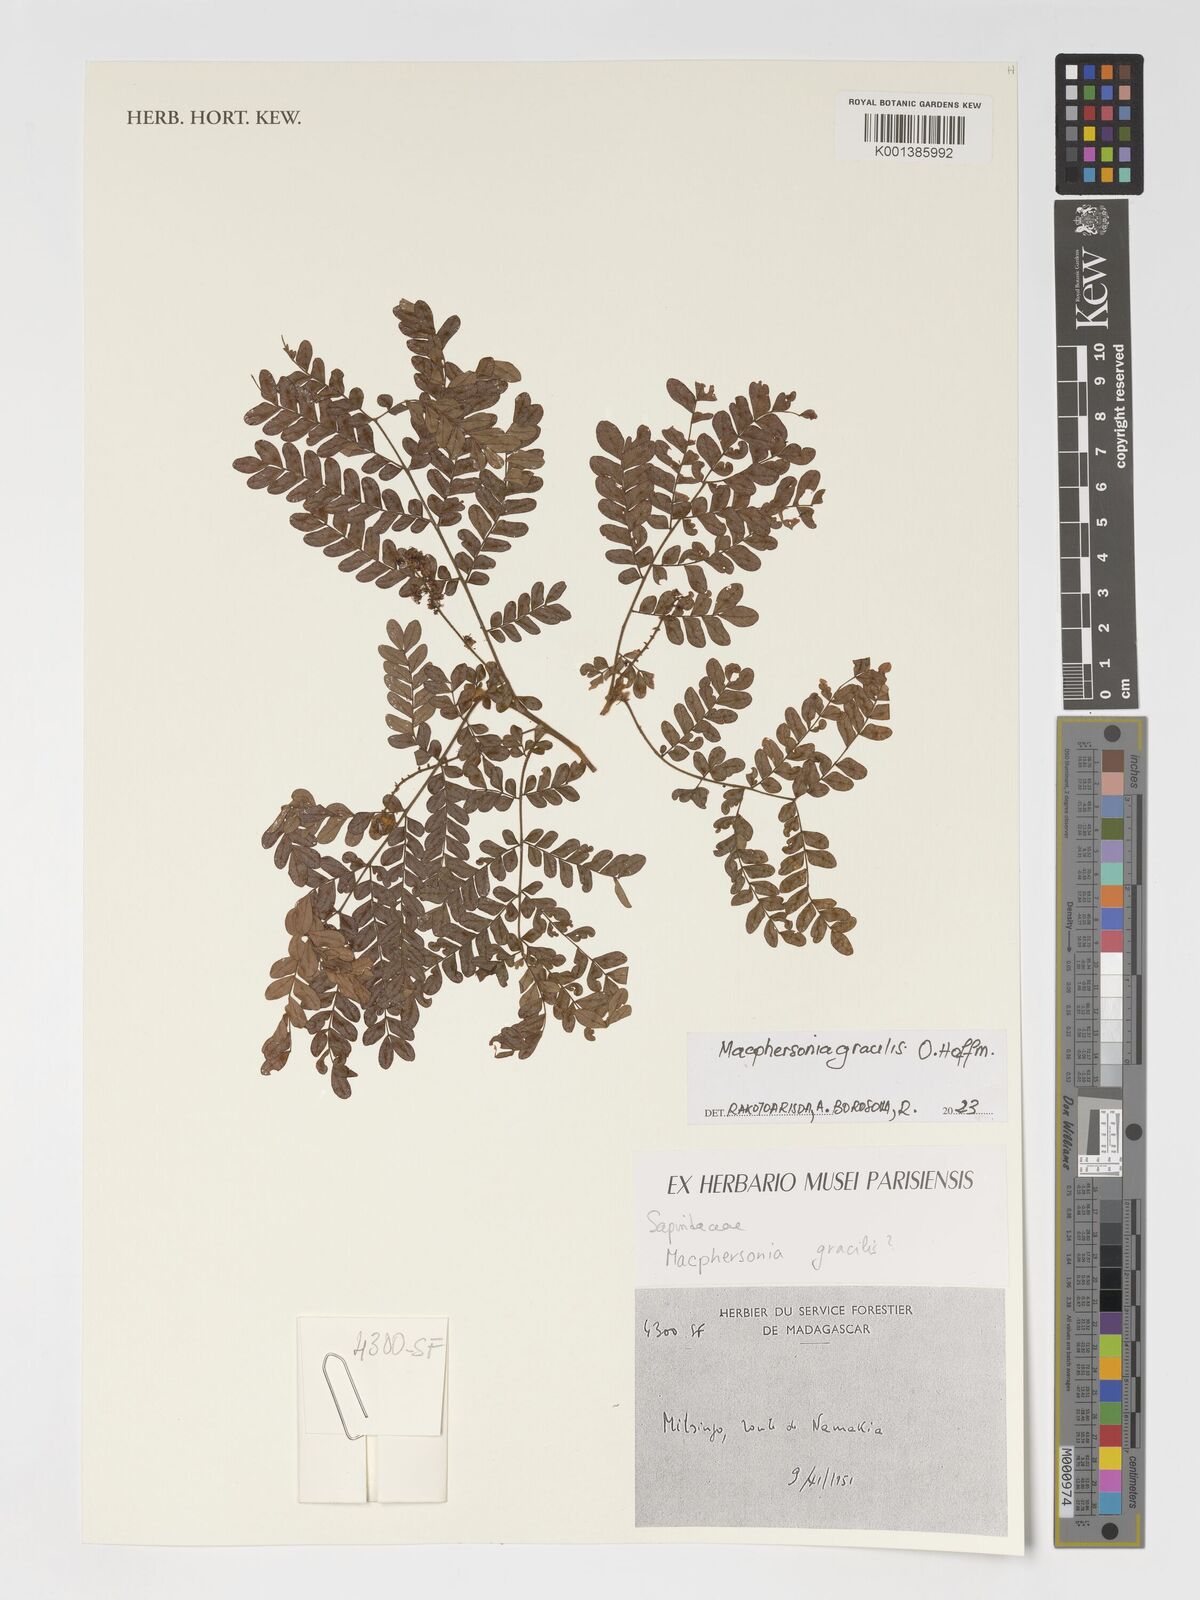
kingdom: Plantae
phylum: Tracheophyta
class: Magnoliopsida
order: Sapindales
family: Sapindaceae
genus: Macphersonia
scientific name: Macphersonia gracilis
